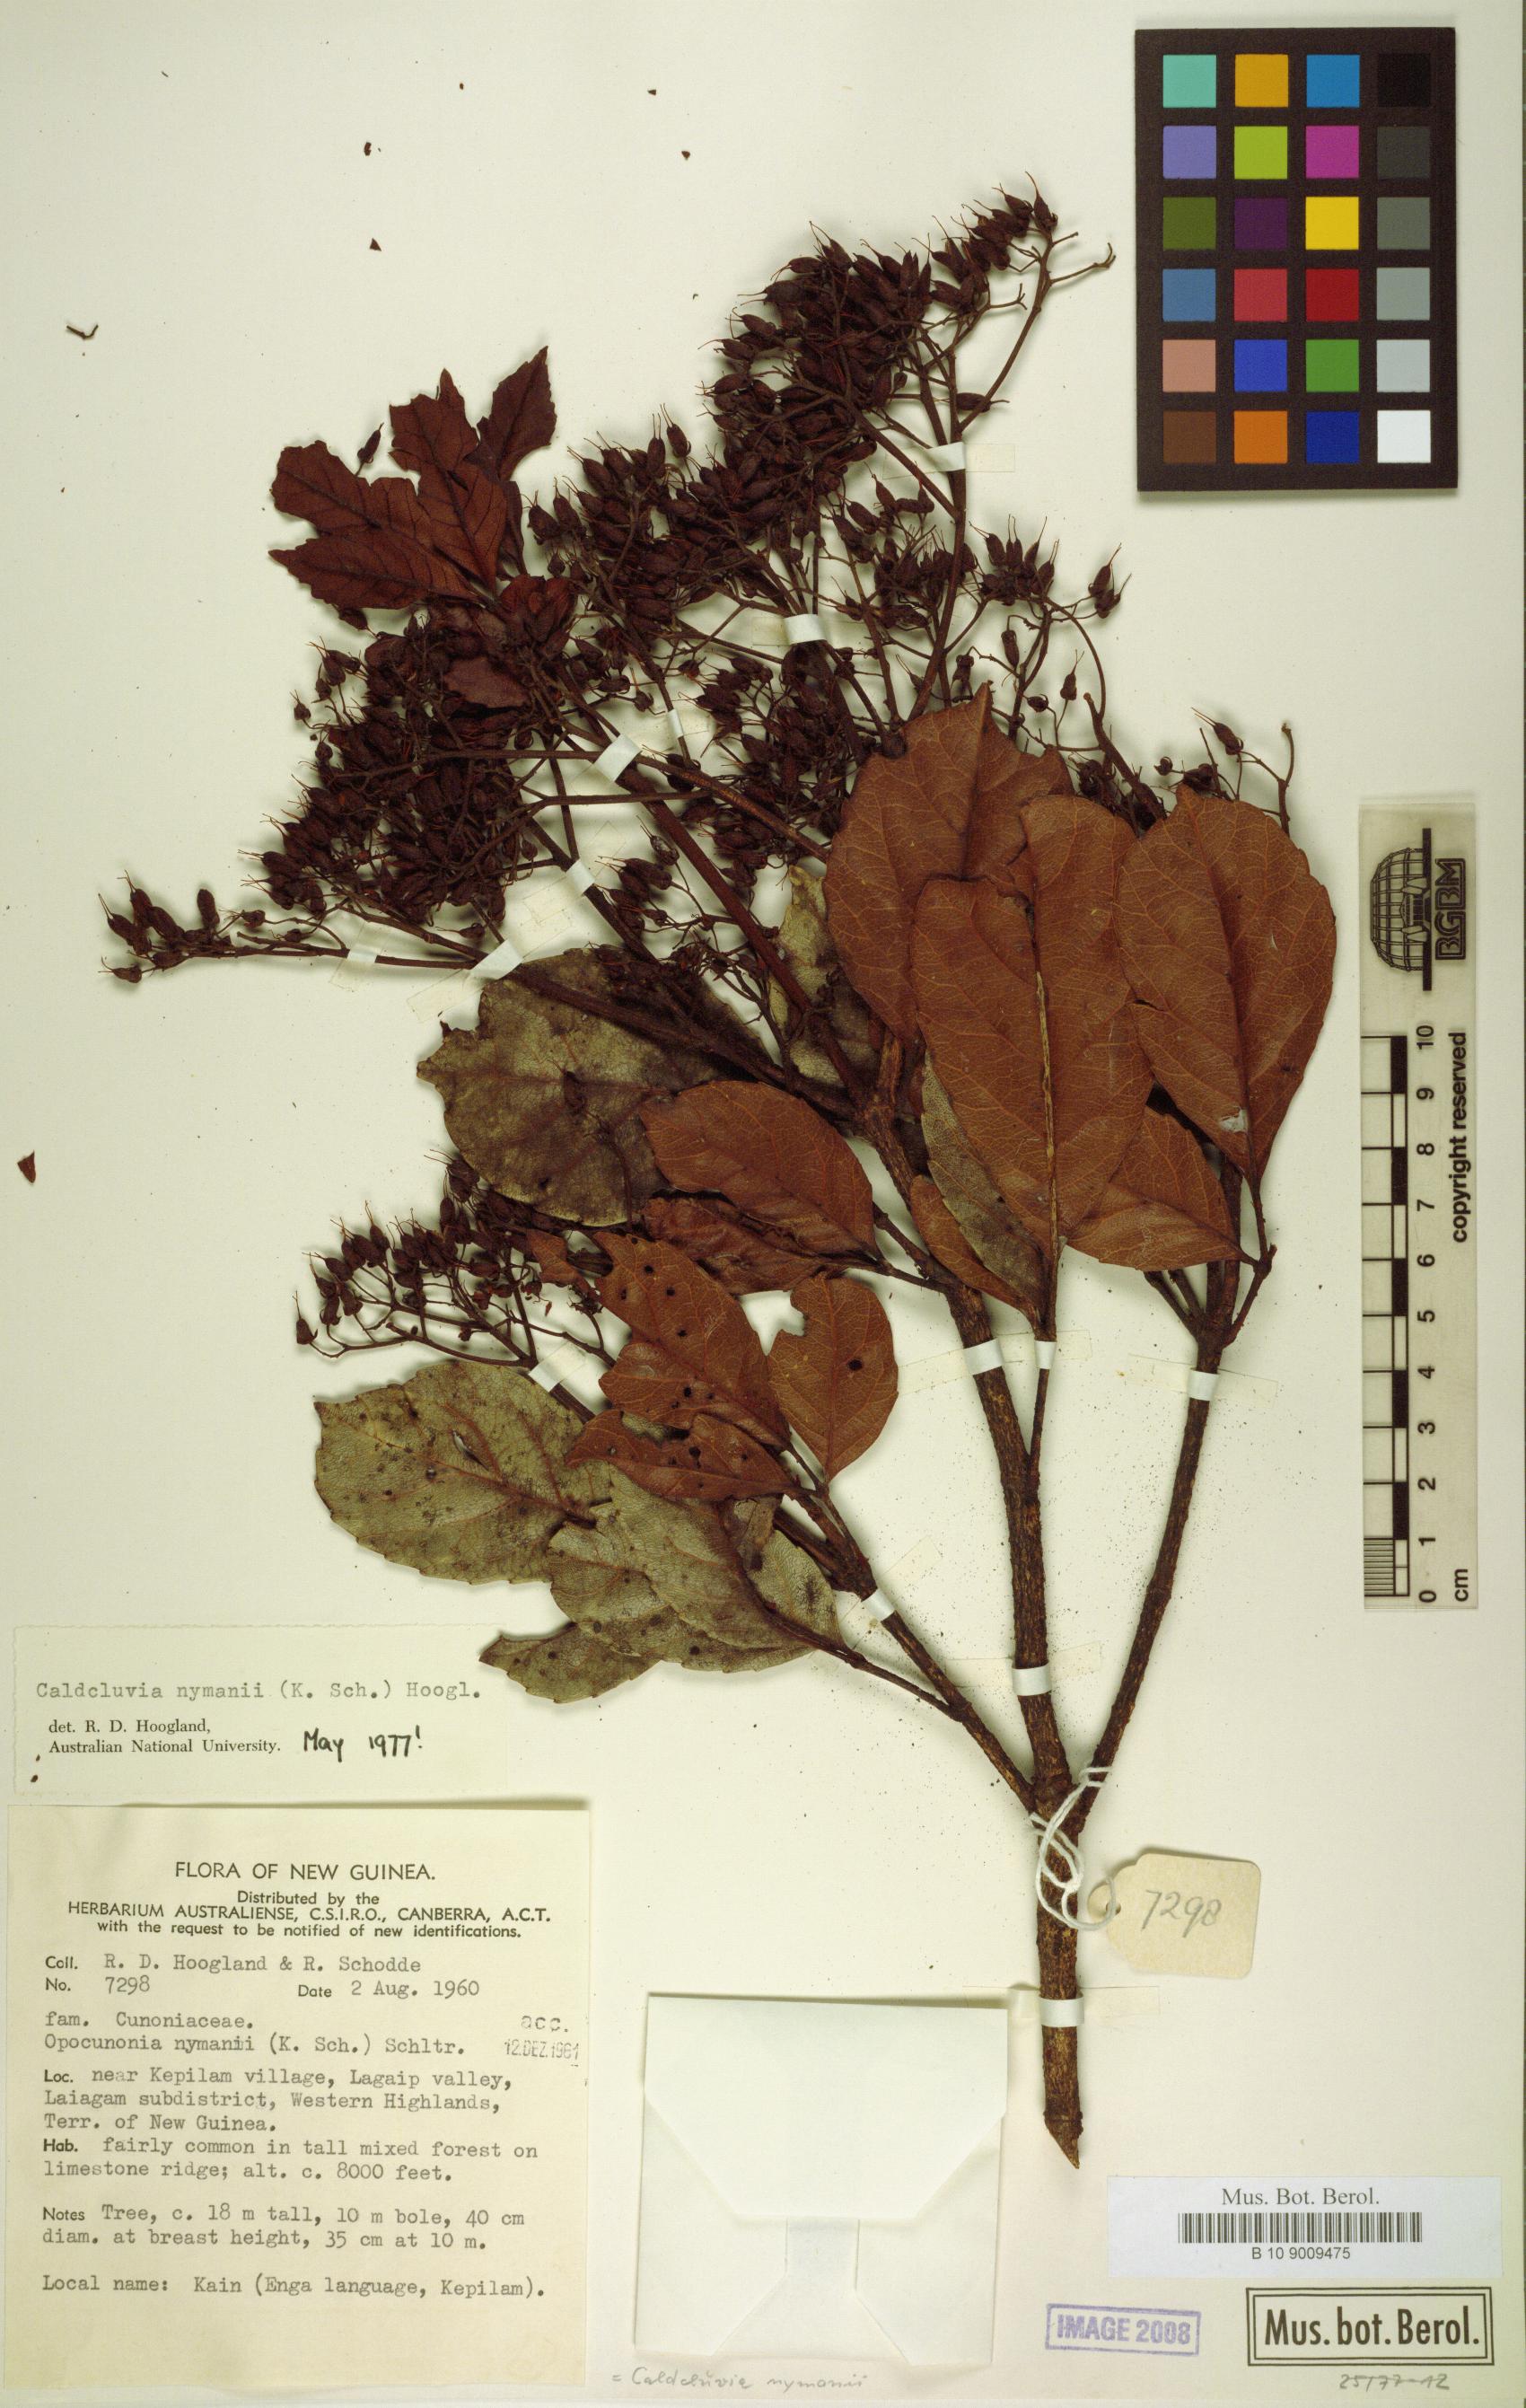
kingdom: Plantae
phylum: Tracheophyta
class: Magnoliopsida
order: Oxalidales
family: Cunoniaceae
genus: Opocunonia
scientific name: Opocunonia nymanii
